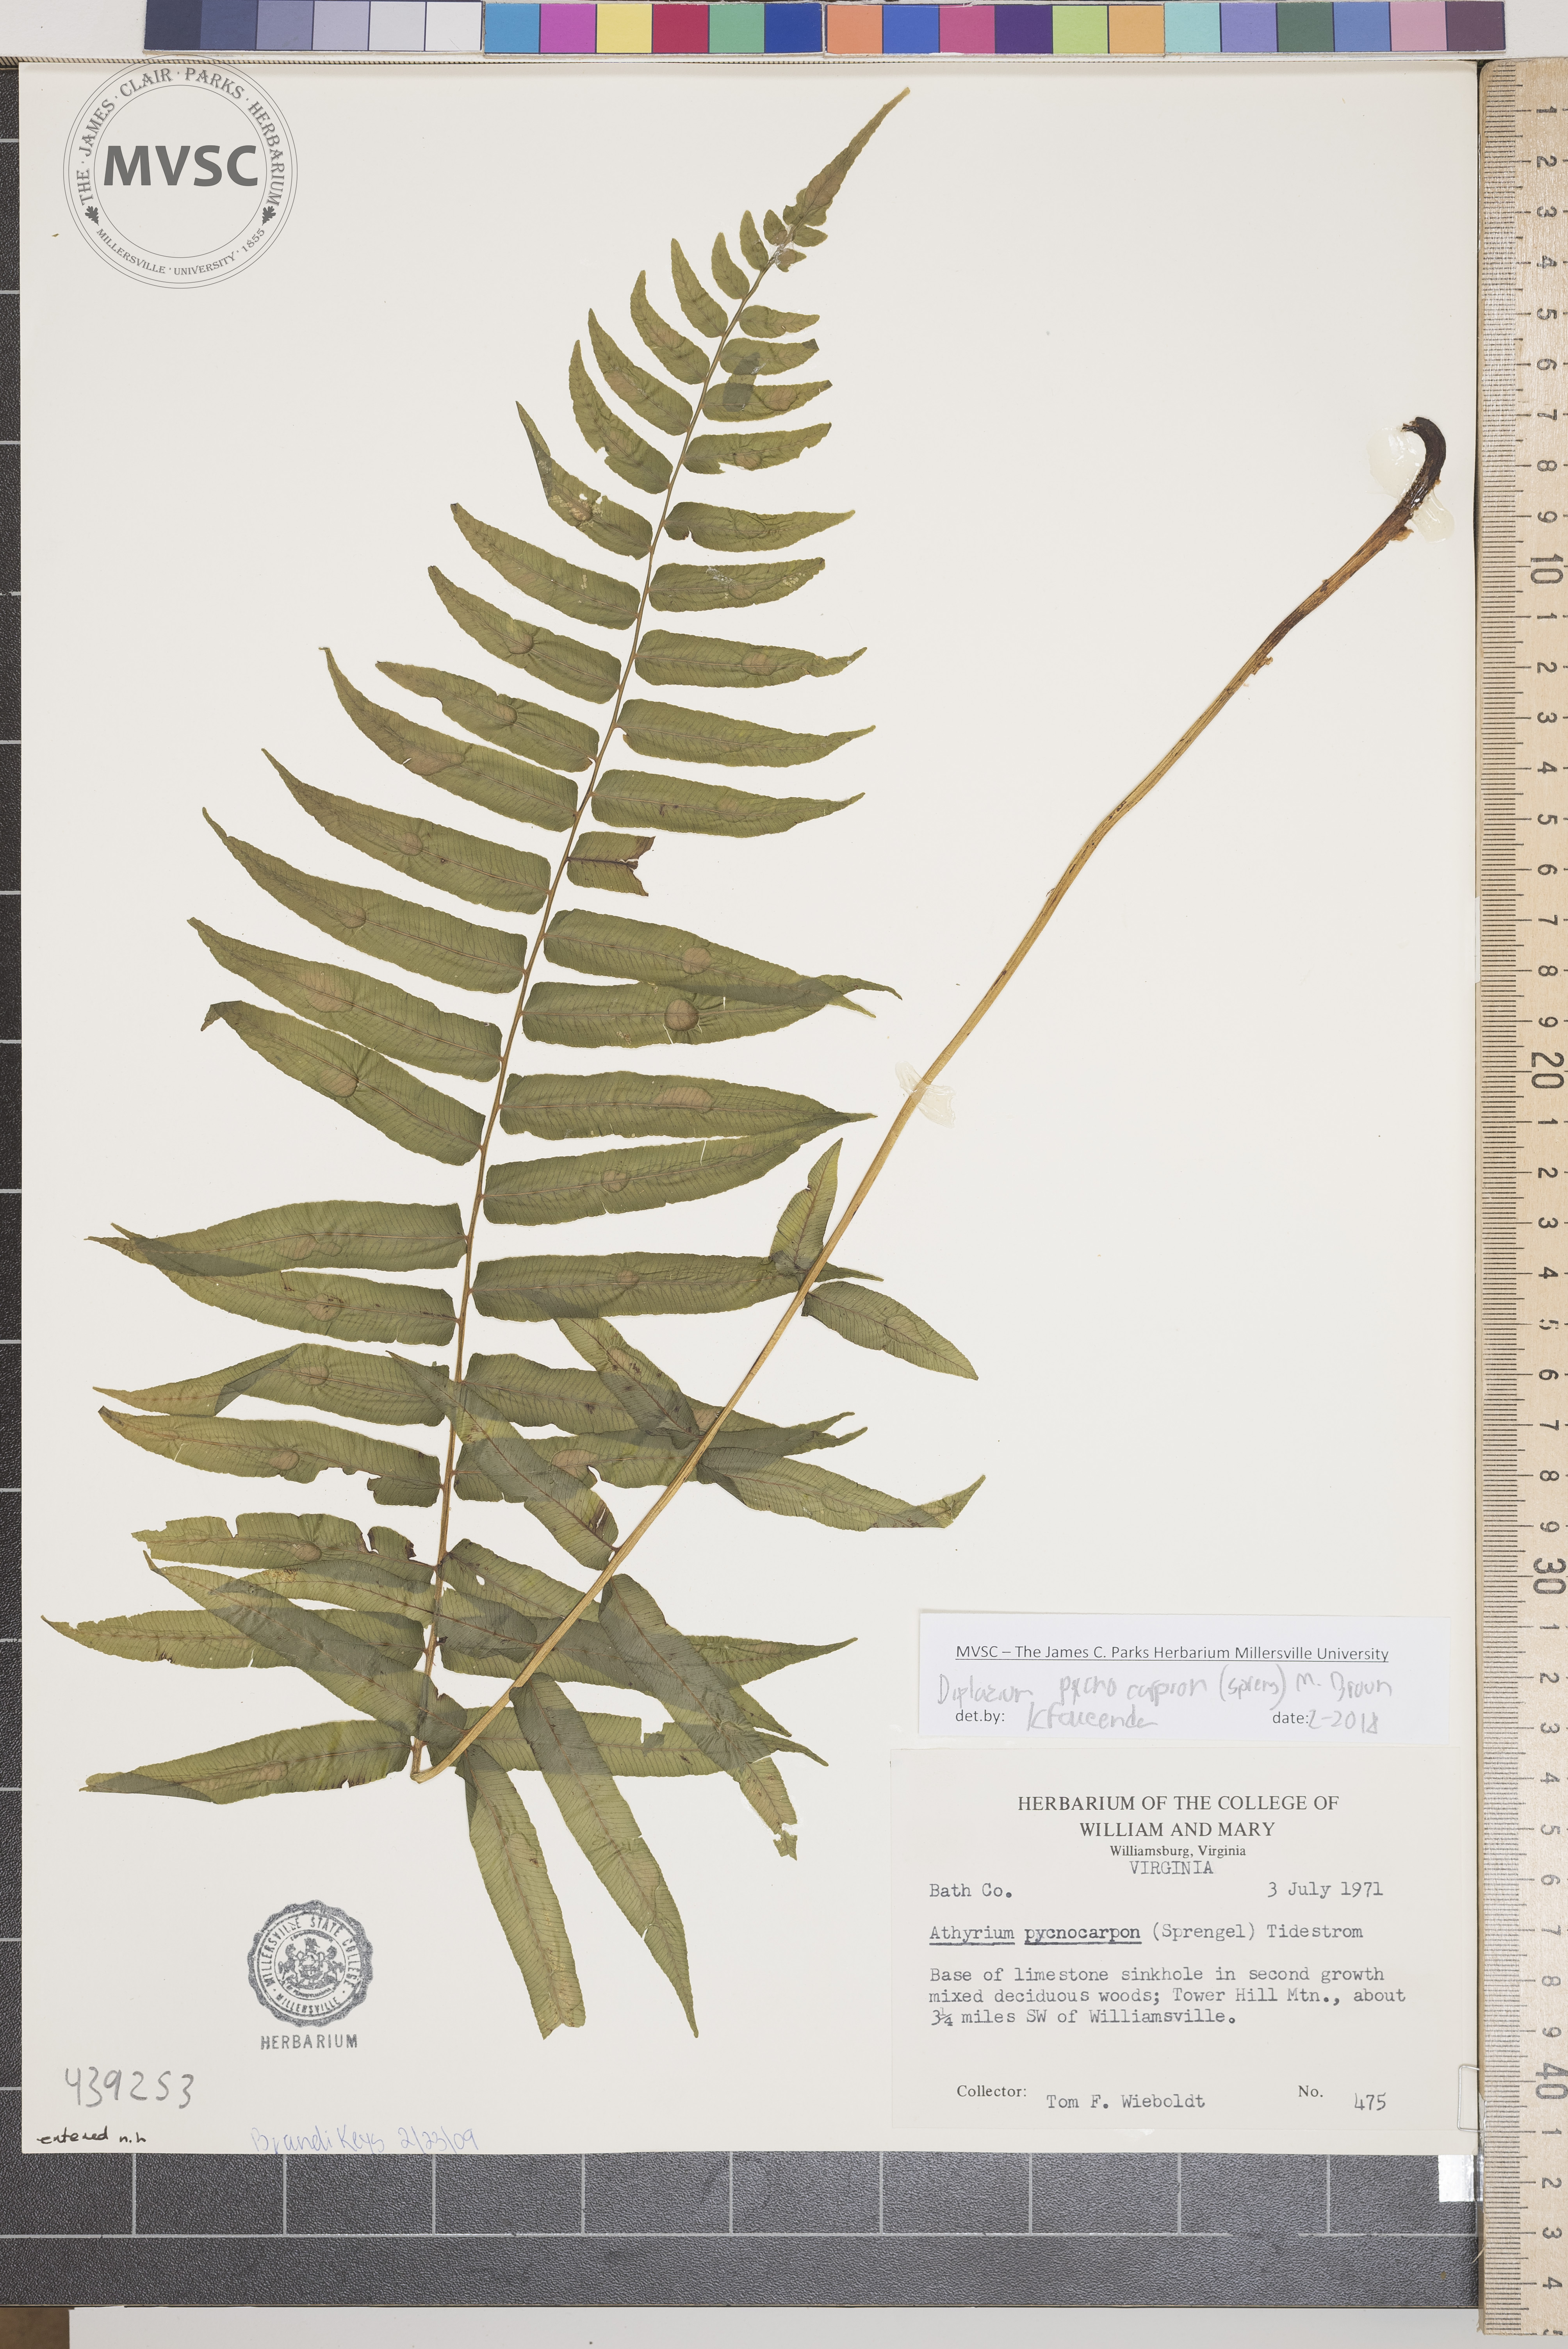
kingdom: Plantae
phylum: Tracheophyta
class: Polypodiopsida
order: Polypodiales
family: Diplaziopsidaceae
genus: Homalosorus
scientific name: Homalosorus pycnocarpos
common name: Glade fern
